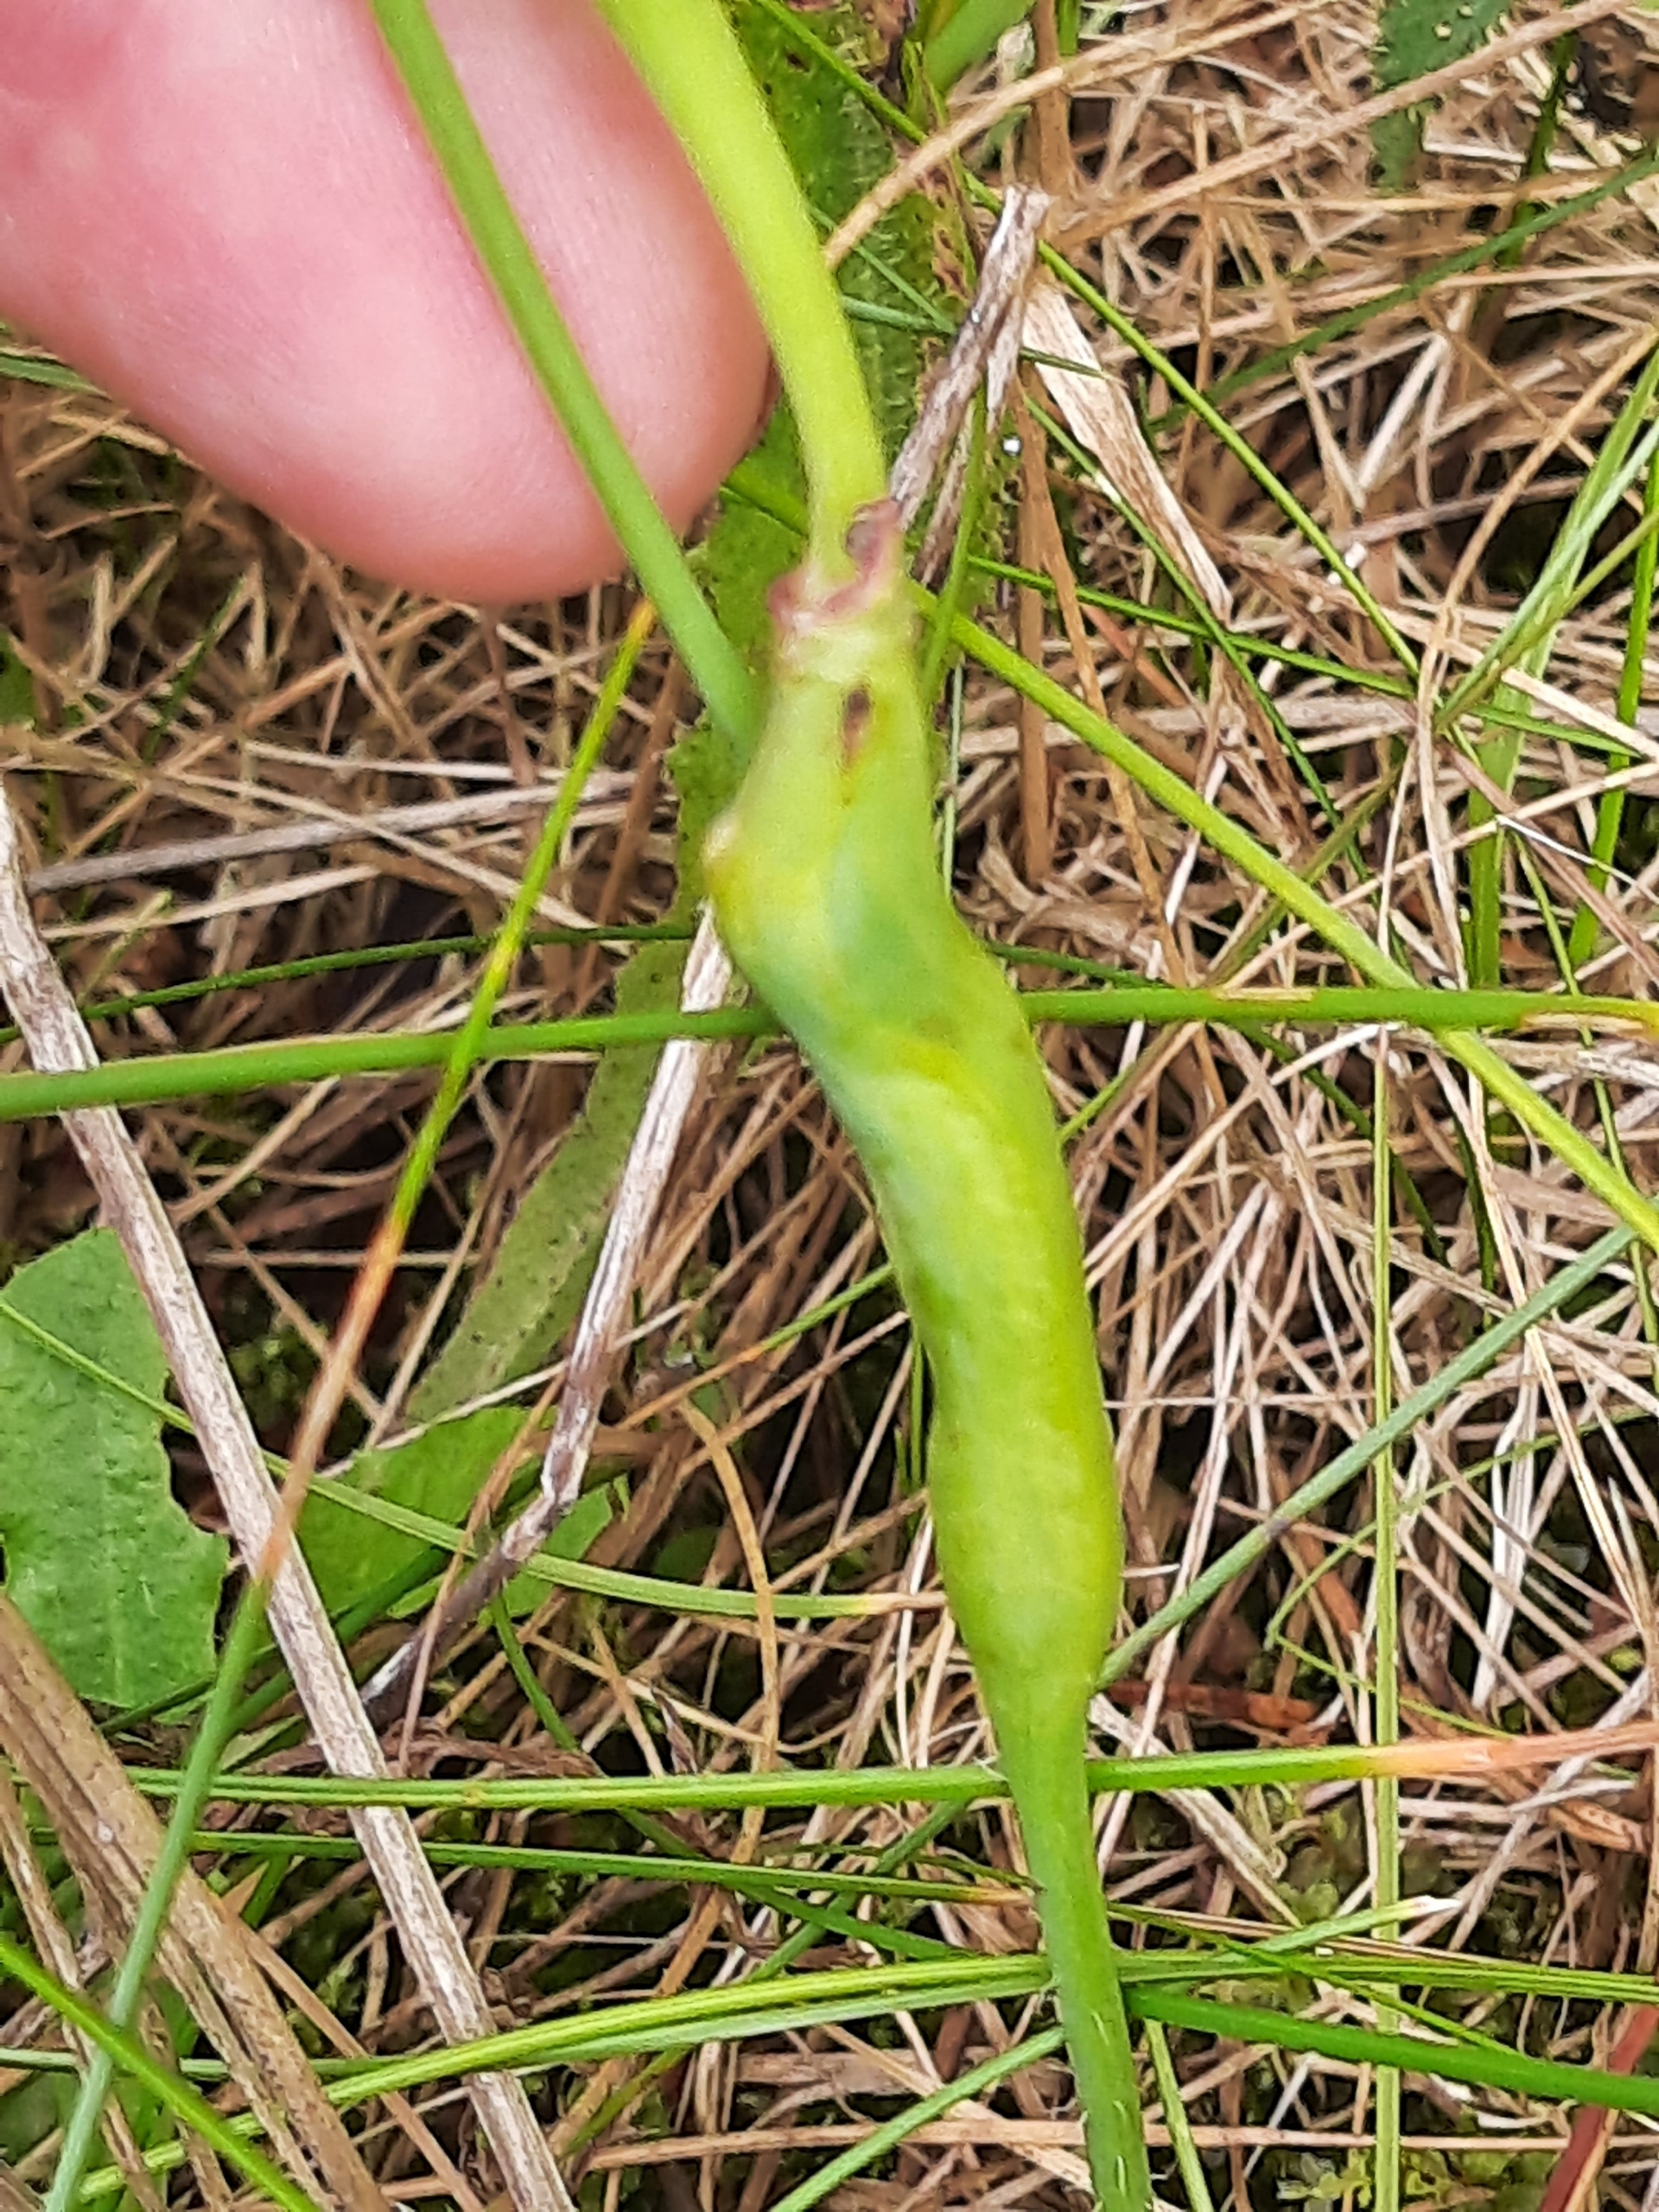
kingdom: Animalia
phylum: Arthropoda
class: Insecta
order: Hymenoptera
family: Cynipidae
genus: Phanacis
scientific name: Phanacis hypochoeridis
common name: Kongepengalhveps
